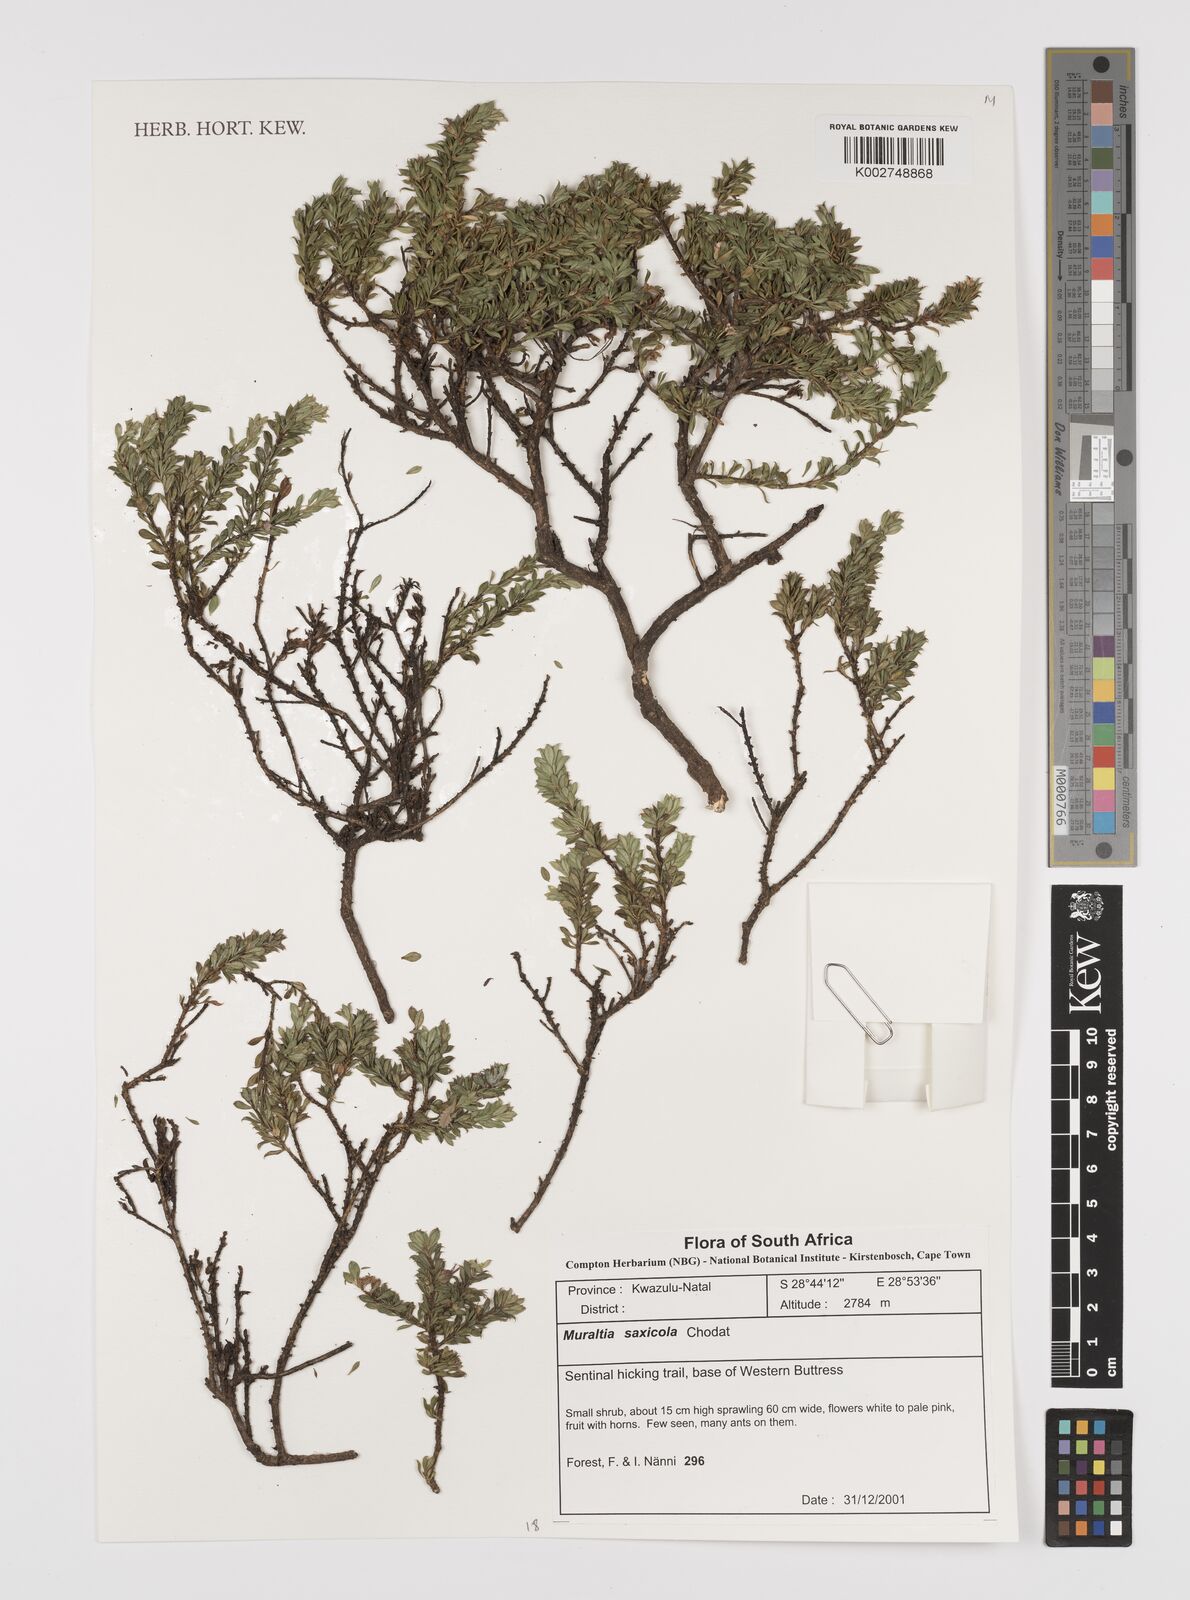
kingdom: Plantae
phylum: Tracheophyta
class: Magnoliopsida
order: Fabales
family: Polygalaceae
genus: Muraltia
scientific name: Muraltia saxicola
